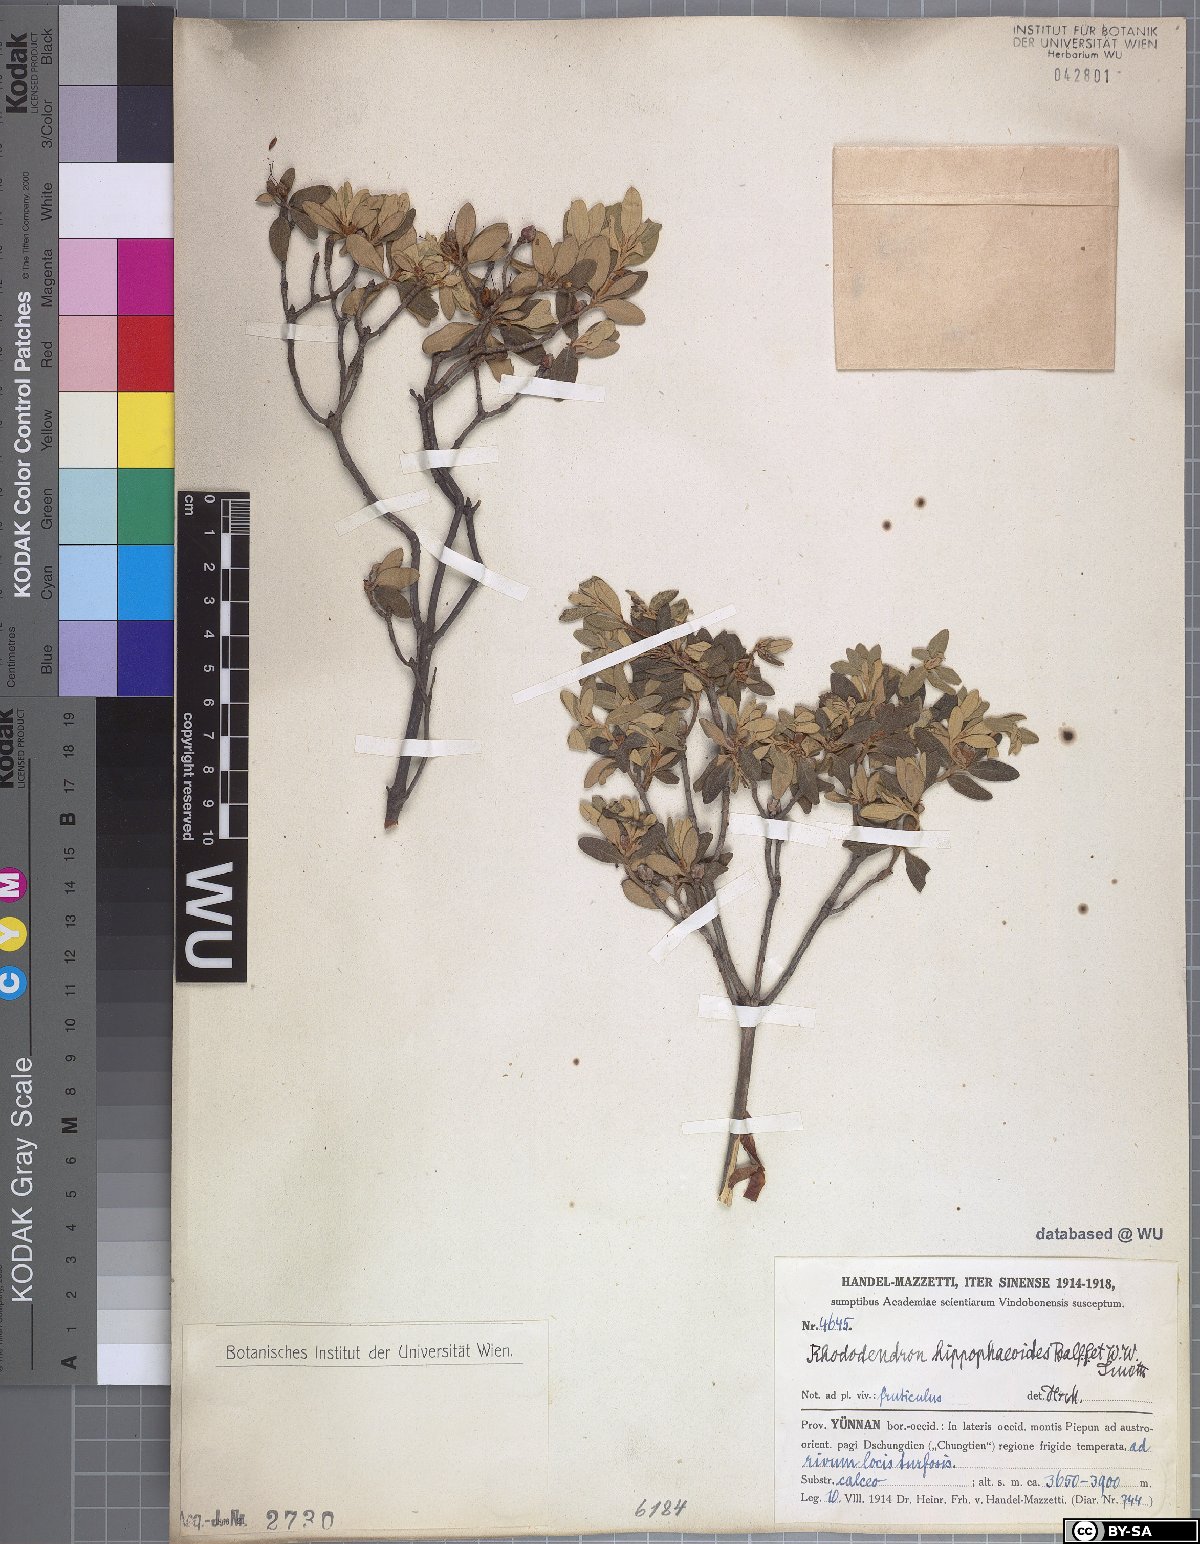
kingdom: Plantae
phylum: Tracheophyta
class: Magnoliopsida
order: Ericales
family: Ericaceae
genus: Rhododendron
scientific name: Rhododendron hippophaeoides
